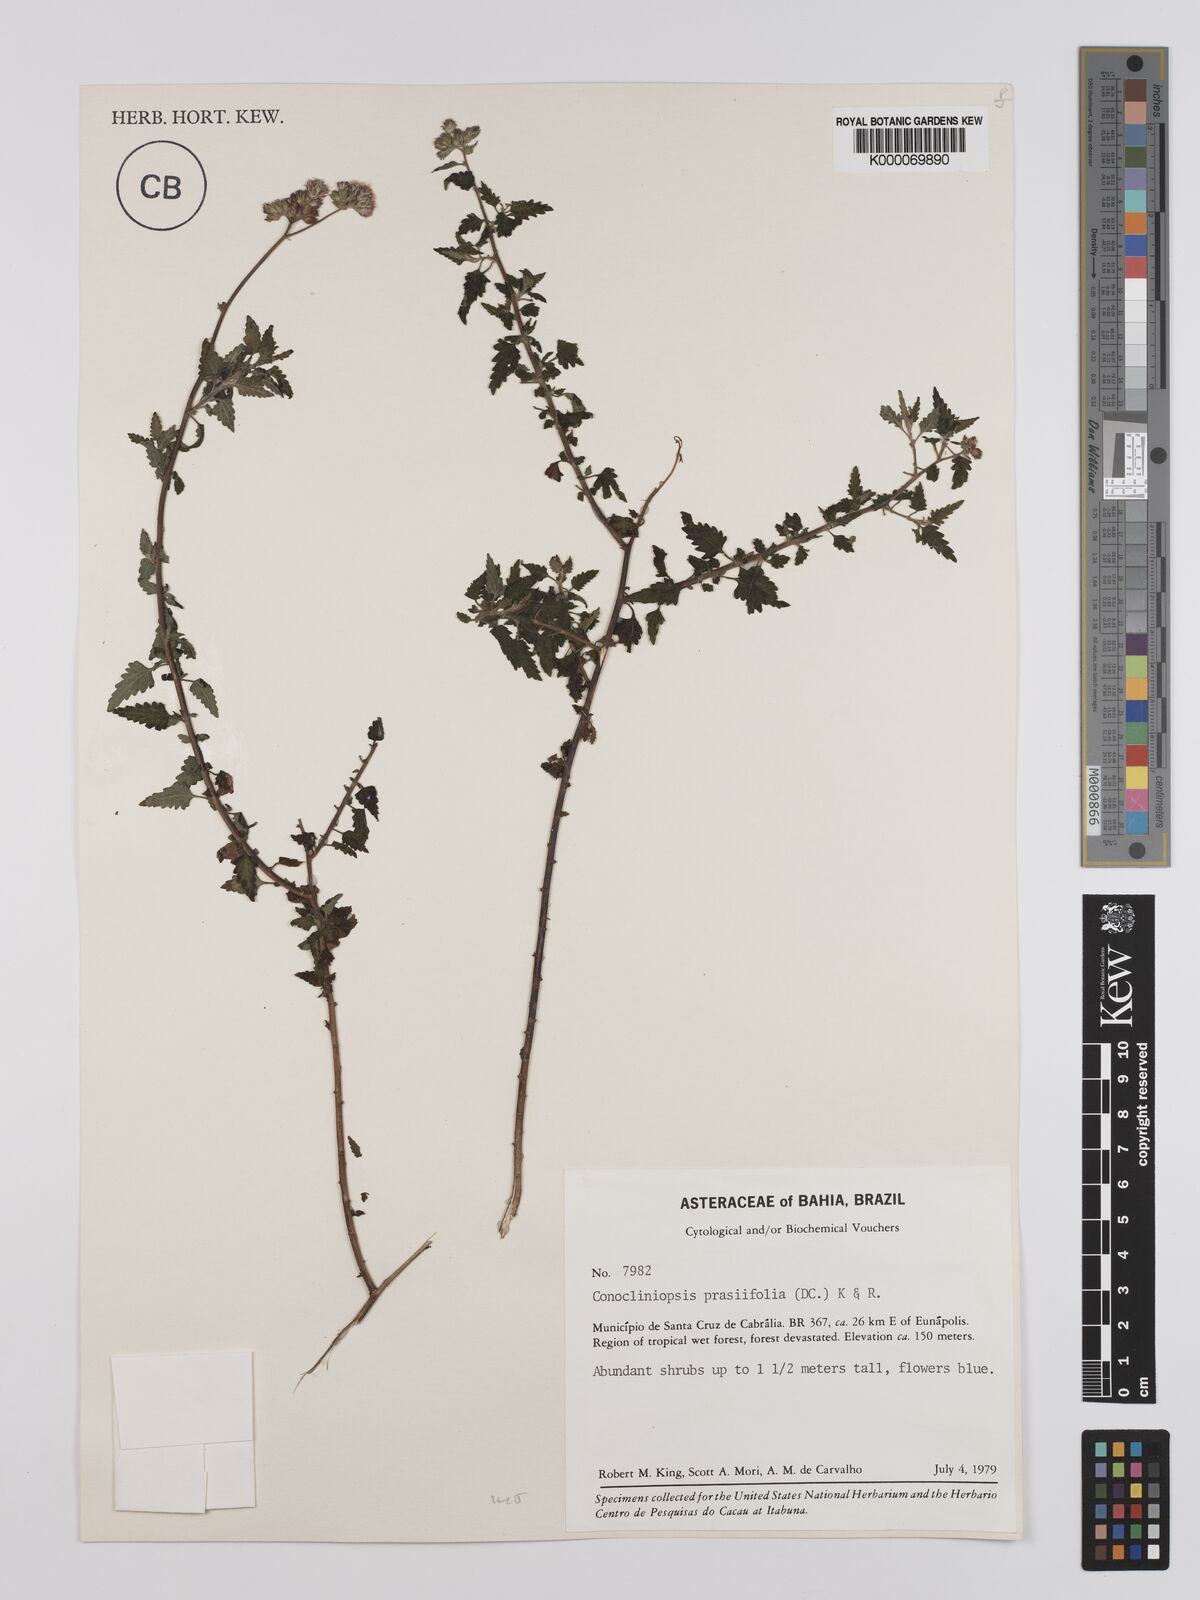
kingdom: Plantae
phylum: Tracheophyta
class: Magnoliopsida
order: Asterales
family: Asteraceae
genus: Conocliniopsis
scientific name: Conocliniopsis grossedentata
